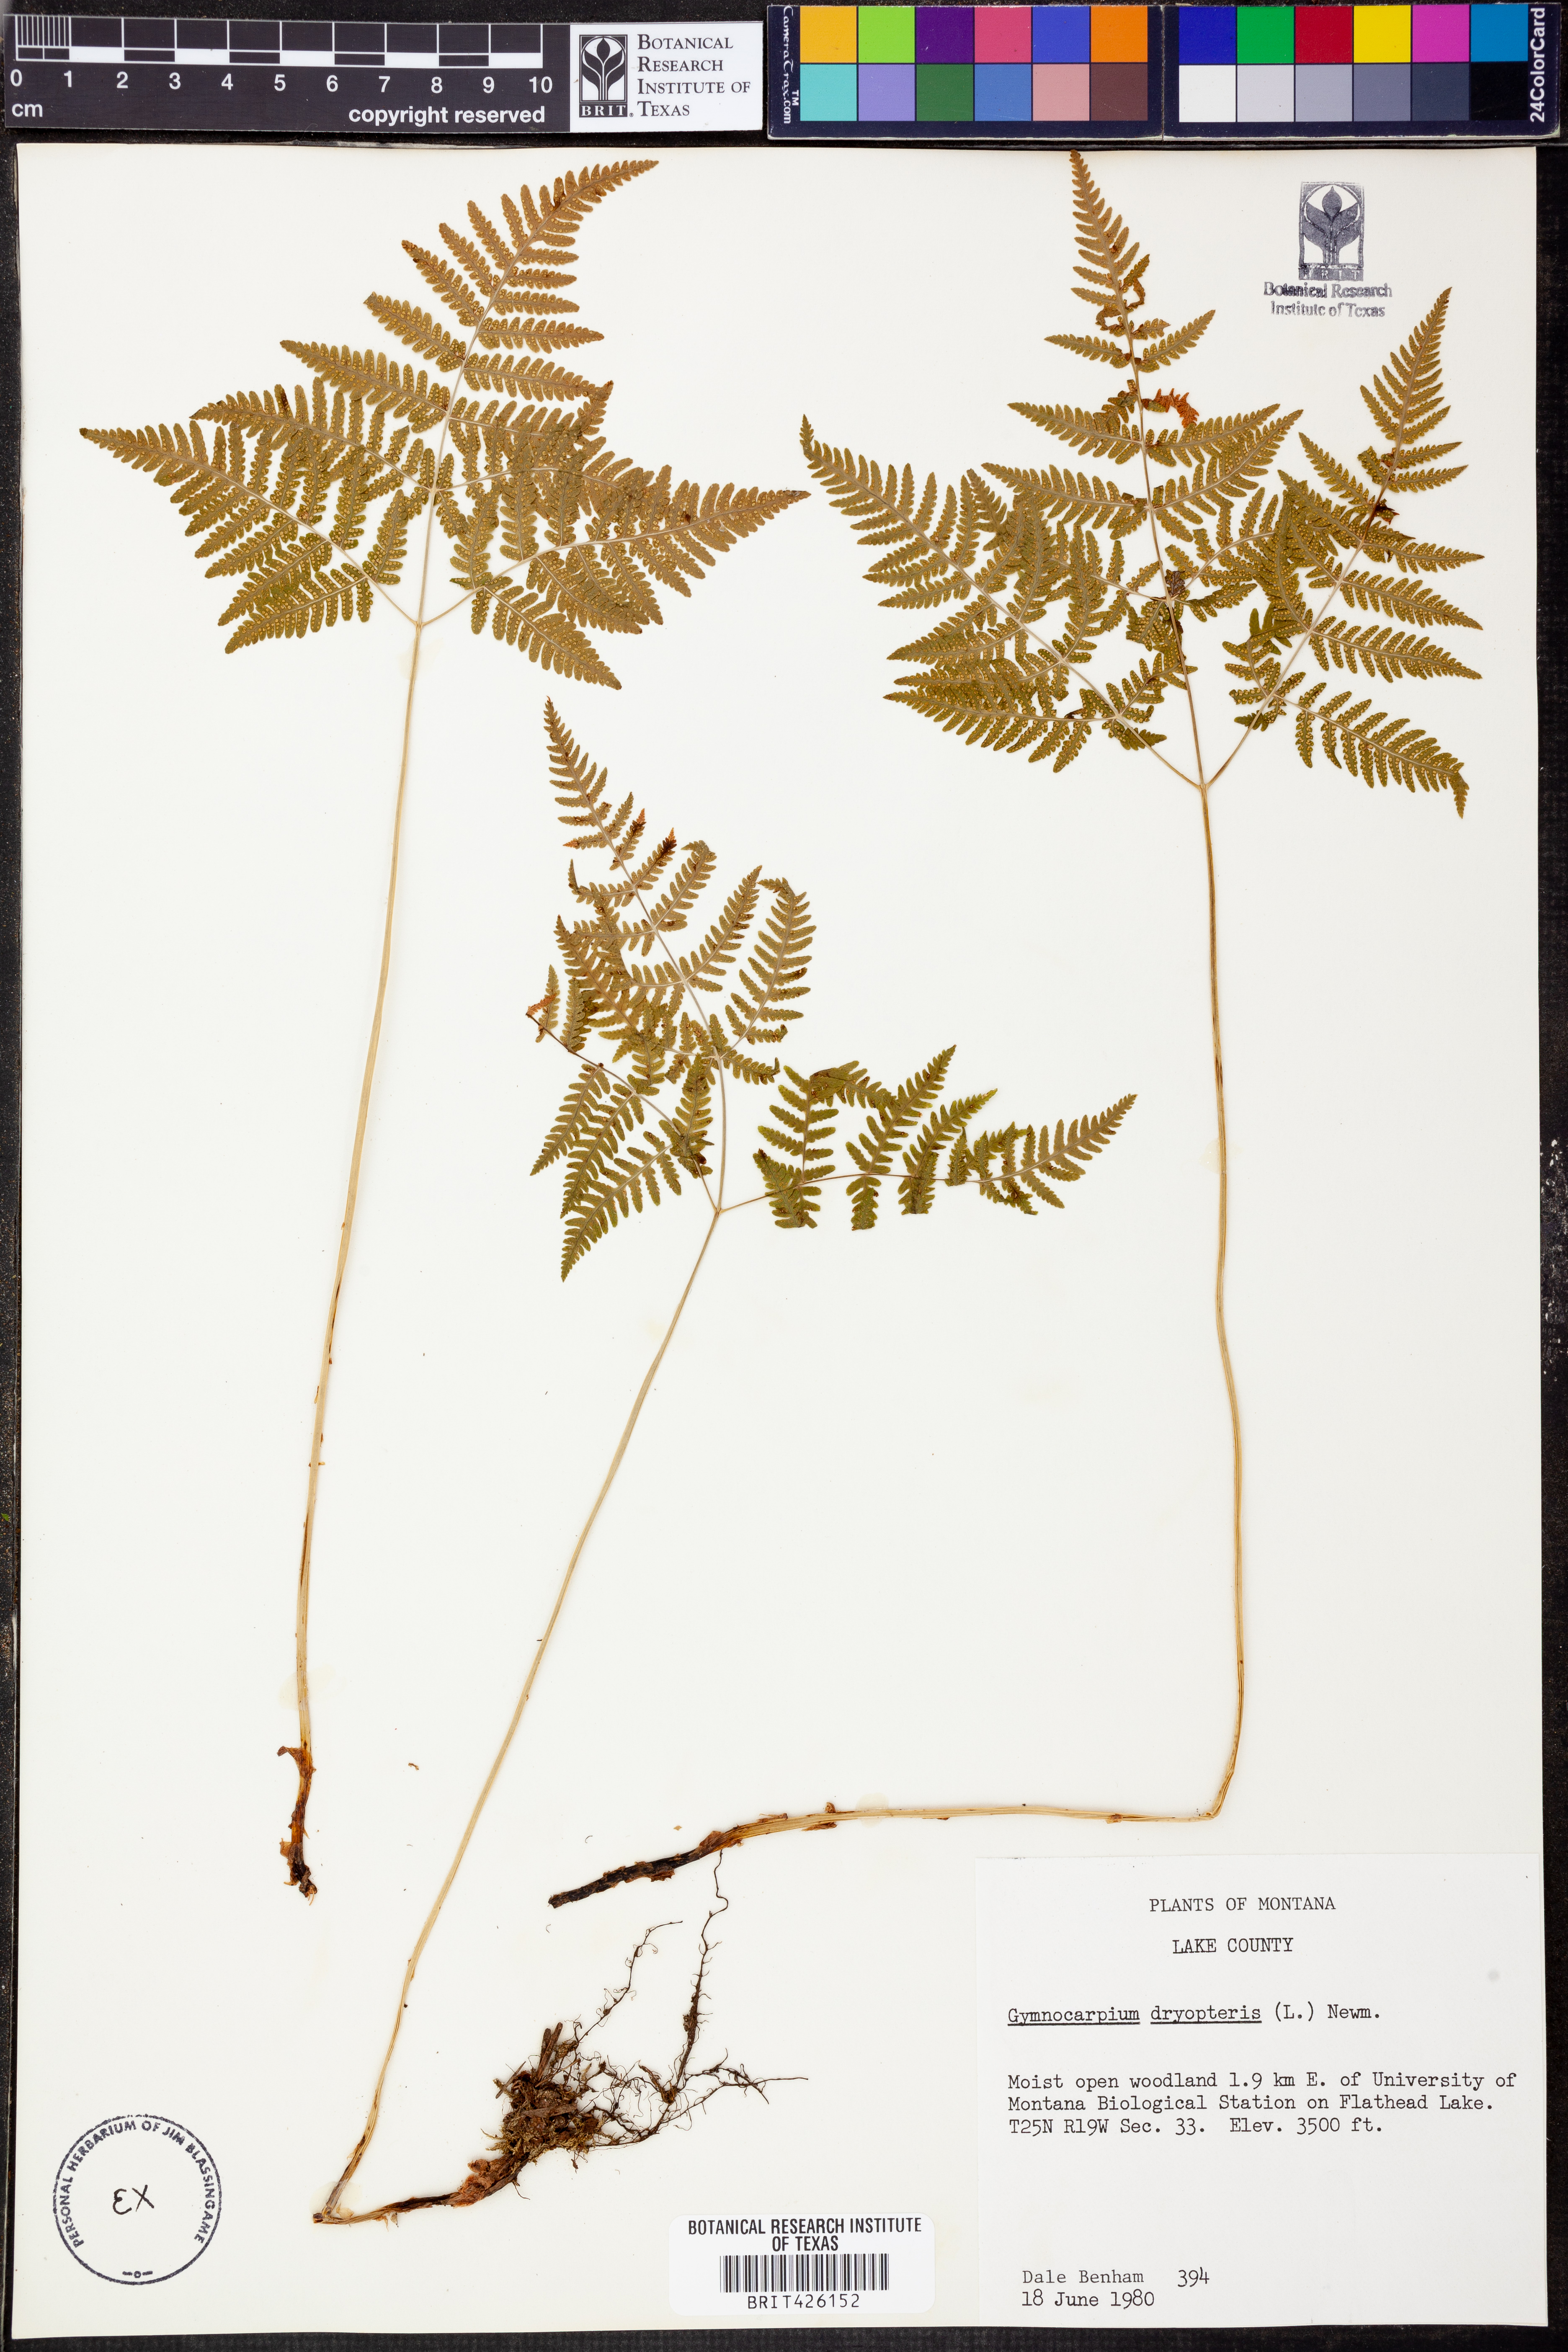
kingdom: Plantae
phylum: Tracheophyta
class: Polypodiopsida
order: Polypodiales
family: Cystopteridaceae
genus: Gymnocarpium
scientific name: Gymnocarpium dryopteris
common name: Oak fern
